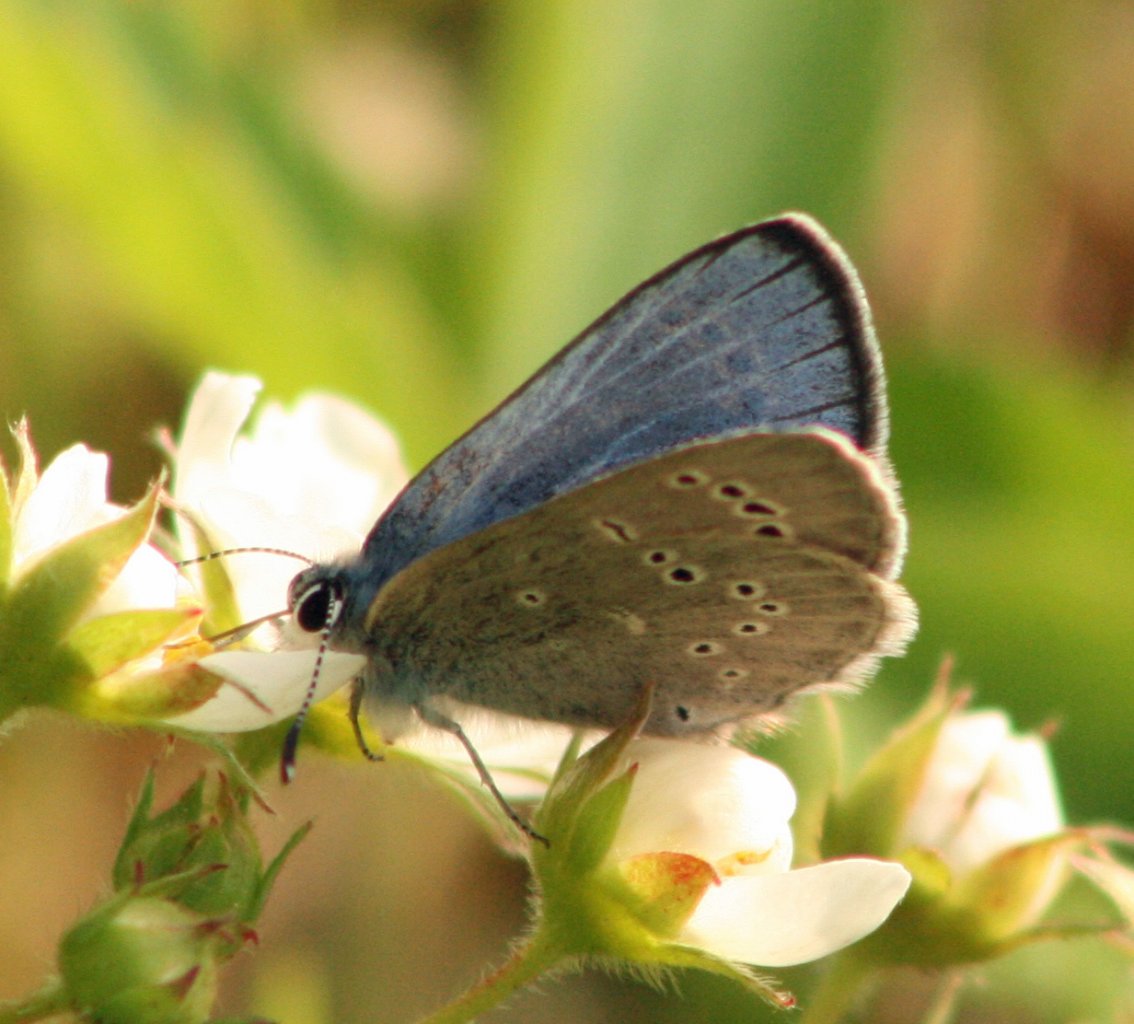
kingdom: Animalia
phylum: Arthropoda
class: Insecta
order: Lepidoptera
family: Lycaenidae
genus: Glaucopsyche
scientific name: Glaucopsyche lygdamus
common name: Silvery Blue
